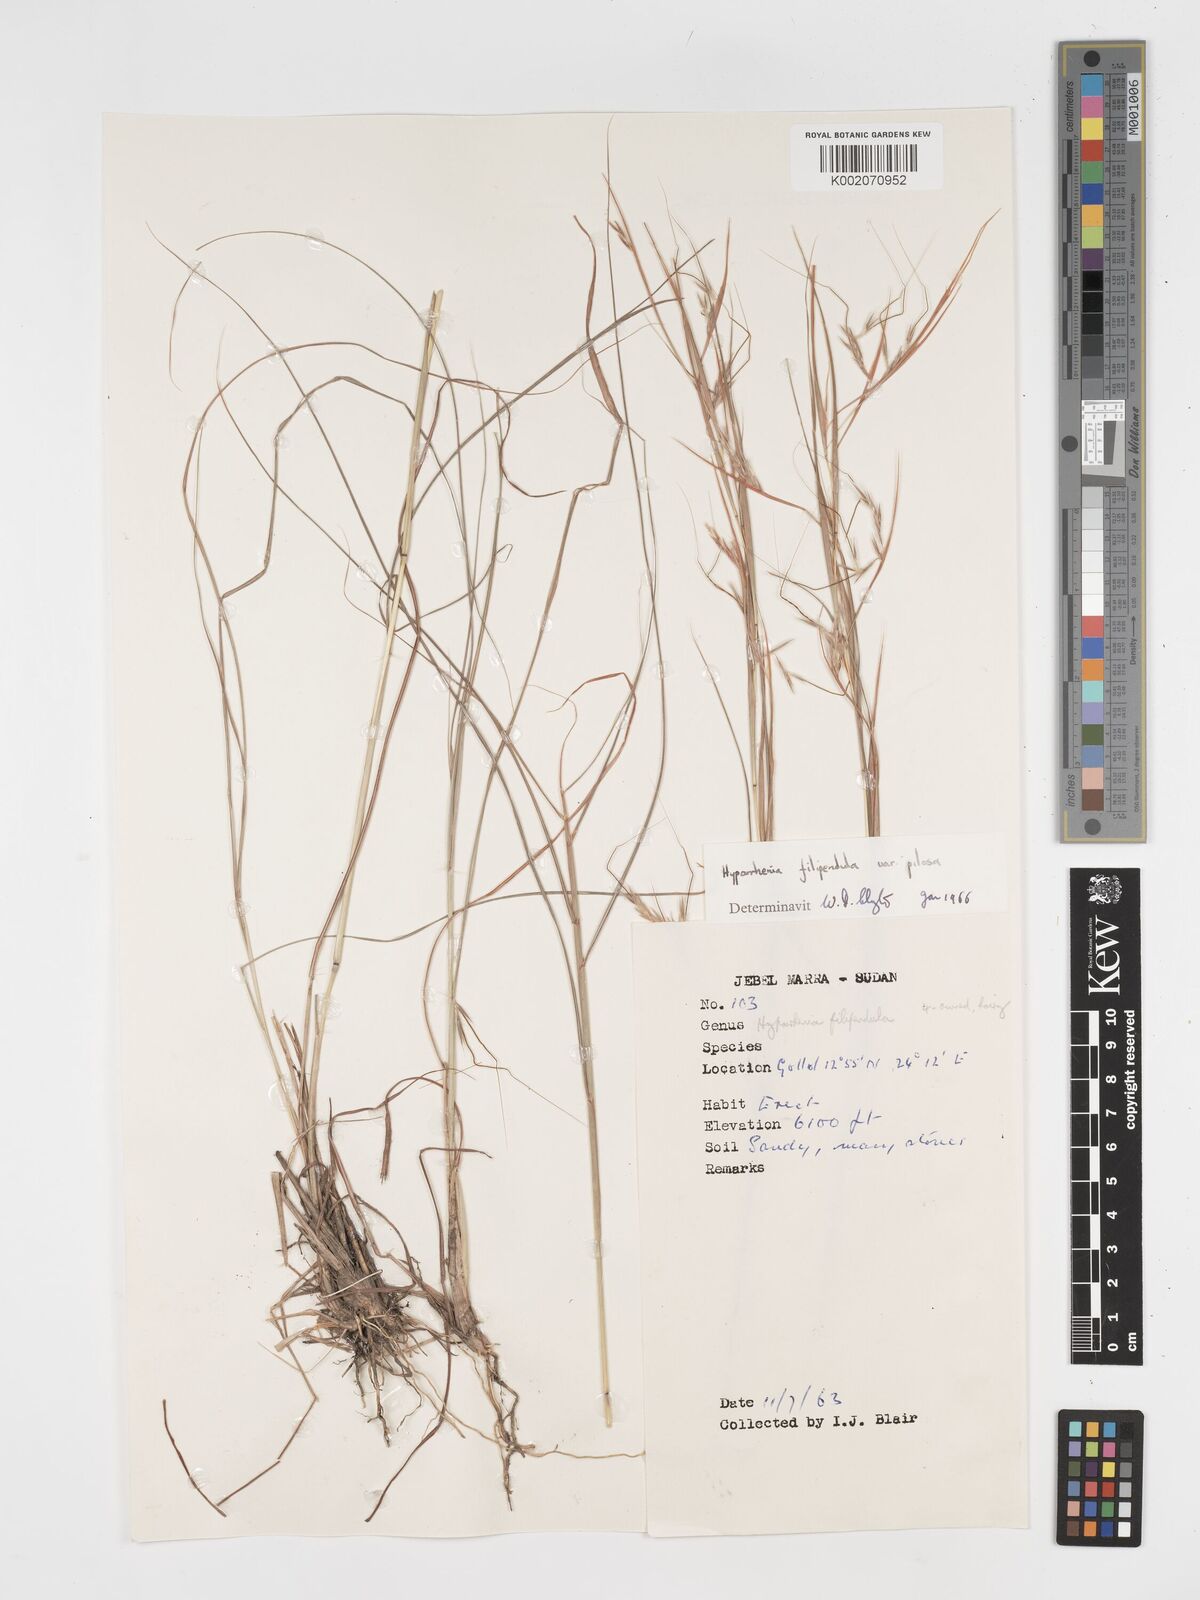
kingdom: Plantae
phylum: Tracheophyta
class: Liliopsida
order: Poales
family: Poaceae
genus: Hyparrhenia
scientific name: Hyparrhenia filipendula
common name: Tambookie grass
